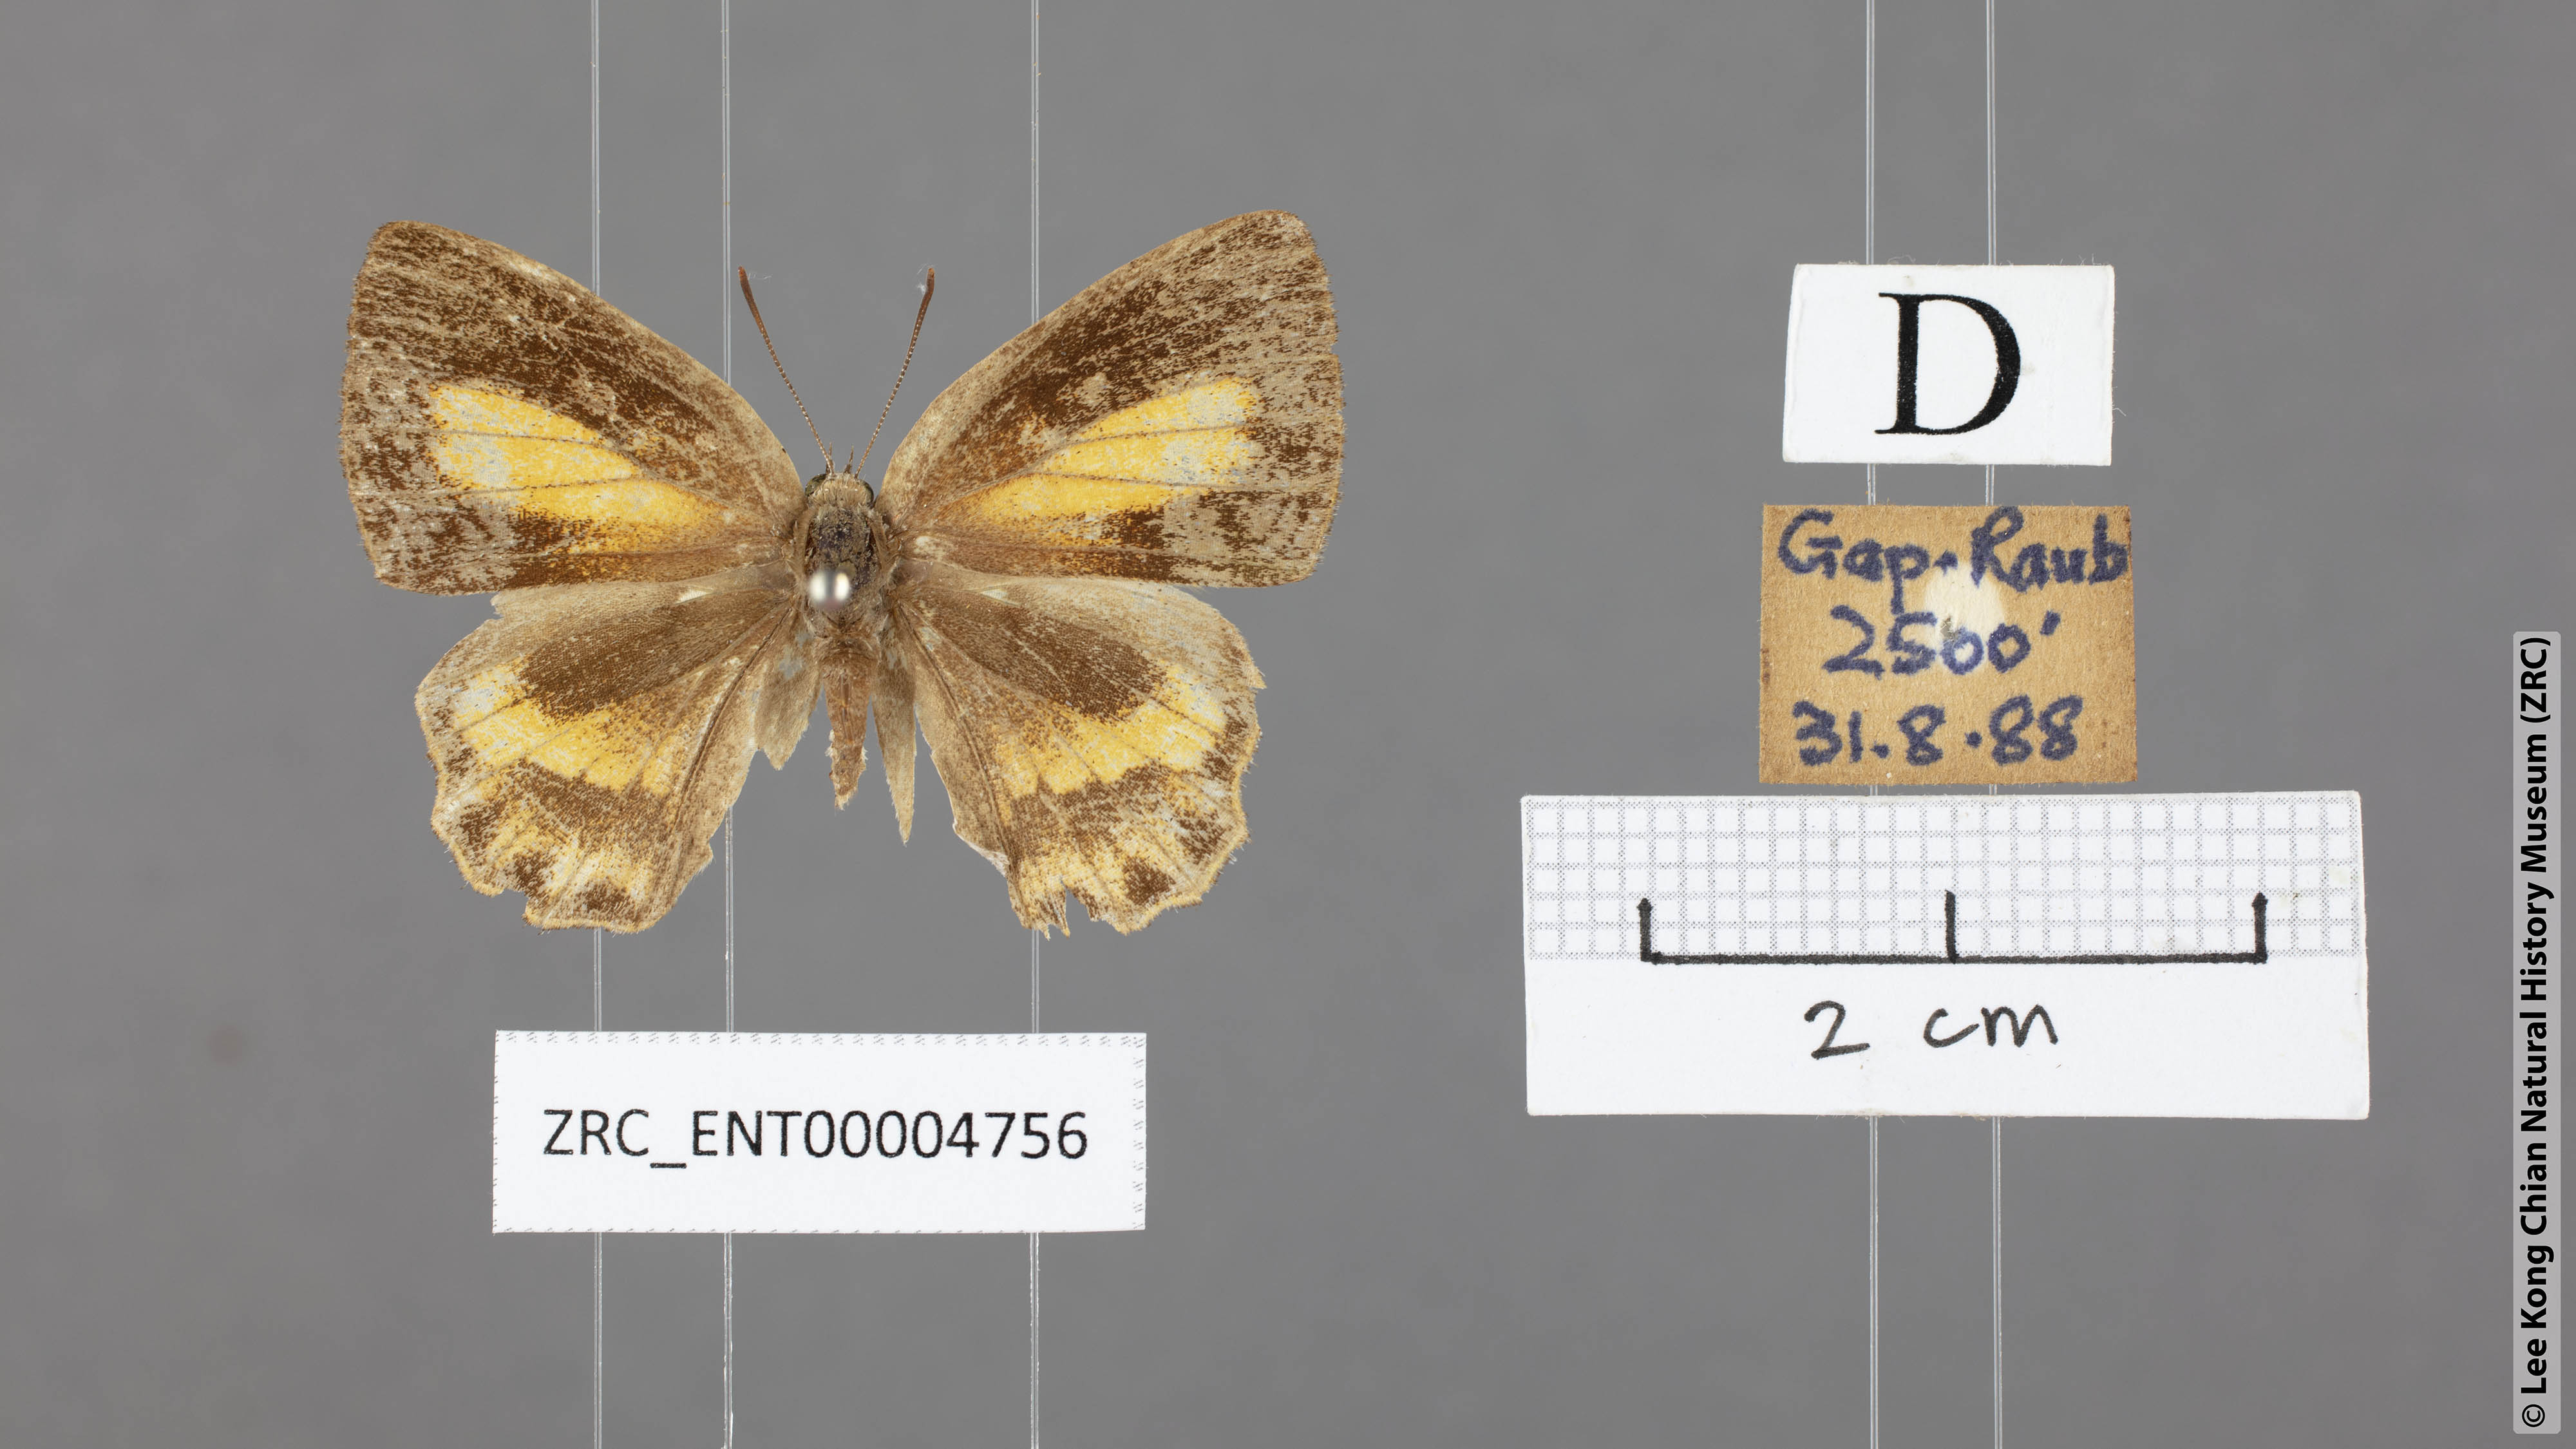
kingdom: Animalia
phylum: Arthropoda
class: Insecta
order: Lepidoptera
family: Lycaenidae
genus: Poritia
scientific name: Poritia erycinoides
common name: Blue gem
